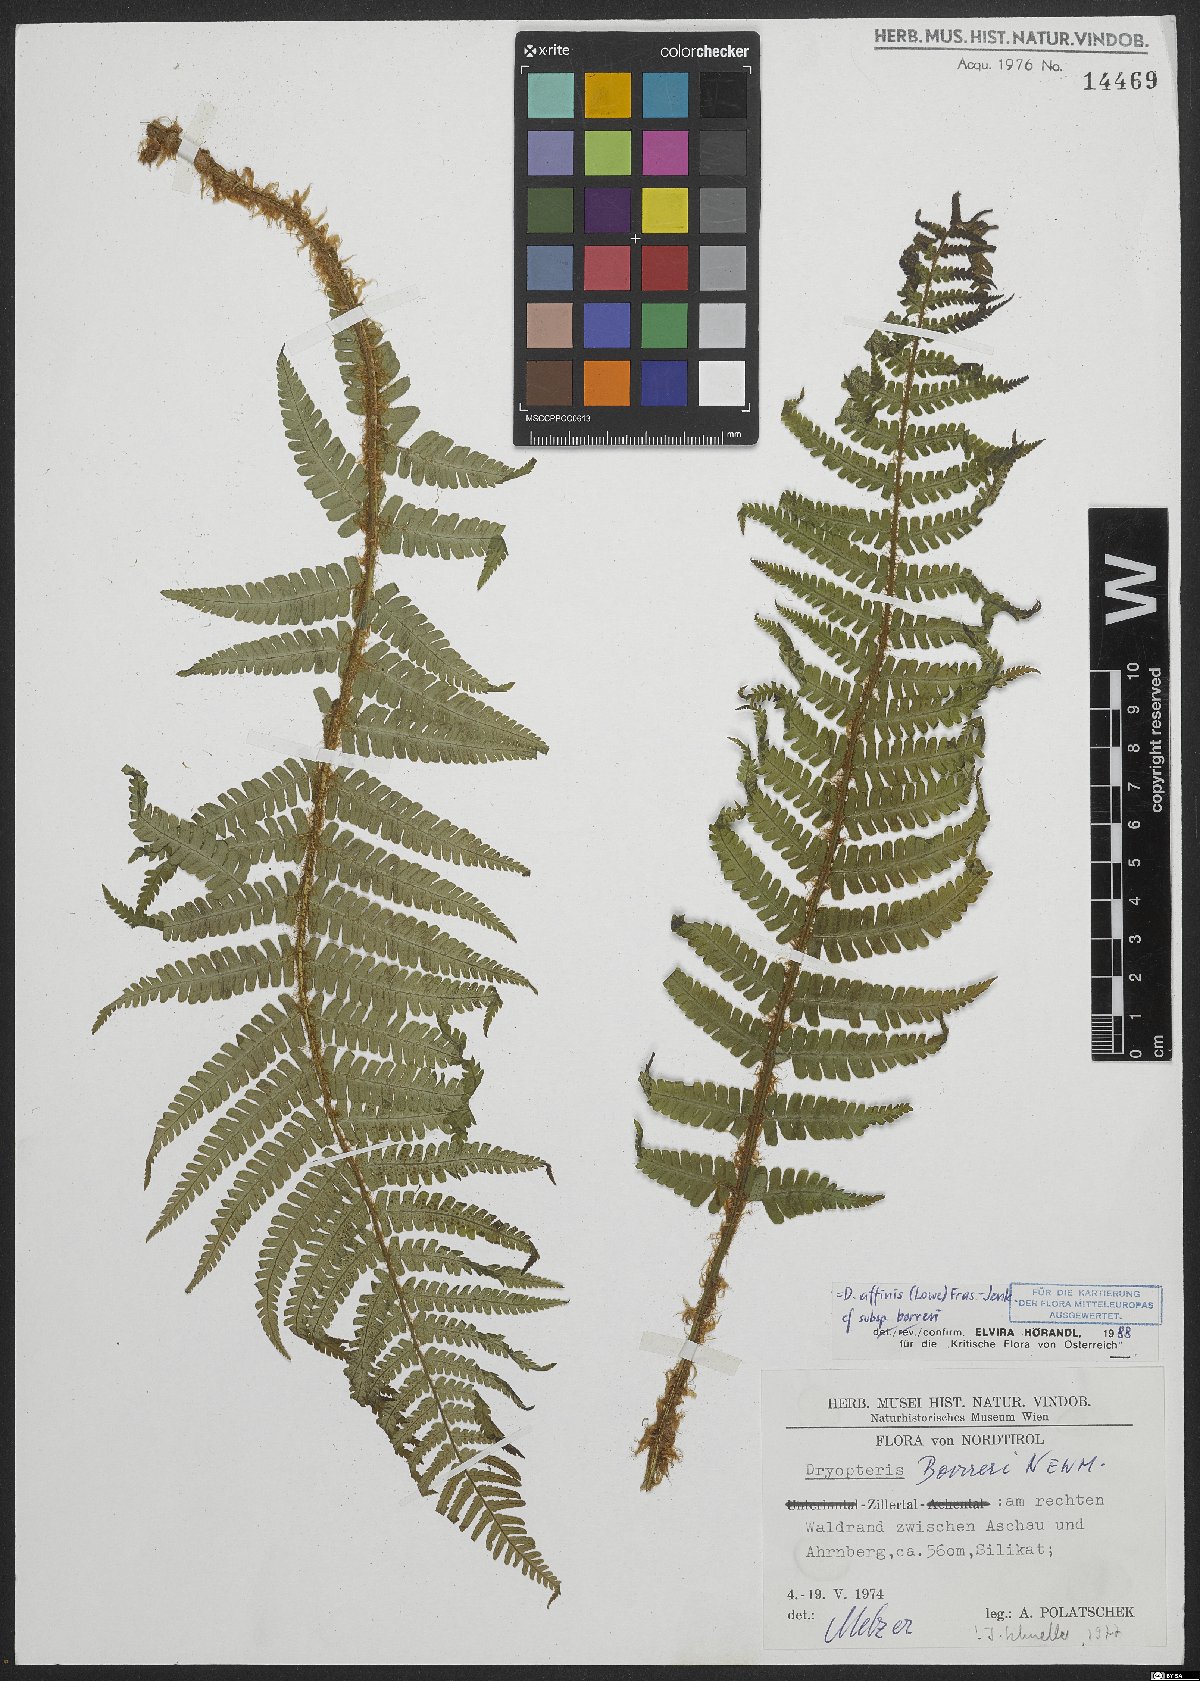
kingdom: Plantae
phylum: Tracheophyta
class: Polypodiopsida
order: Polypodiales
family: Dryopteridaceae
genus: Dryopteris
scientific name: Dryopteris borreri
